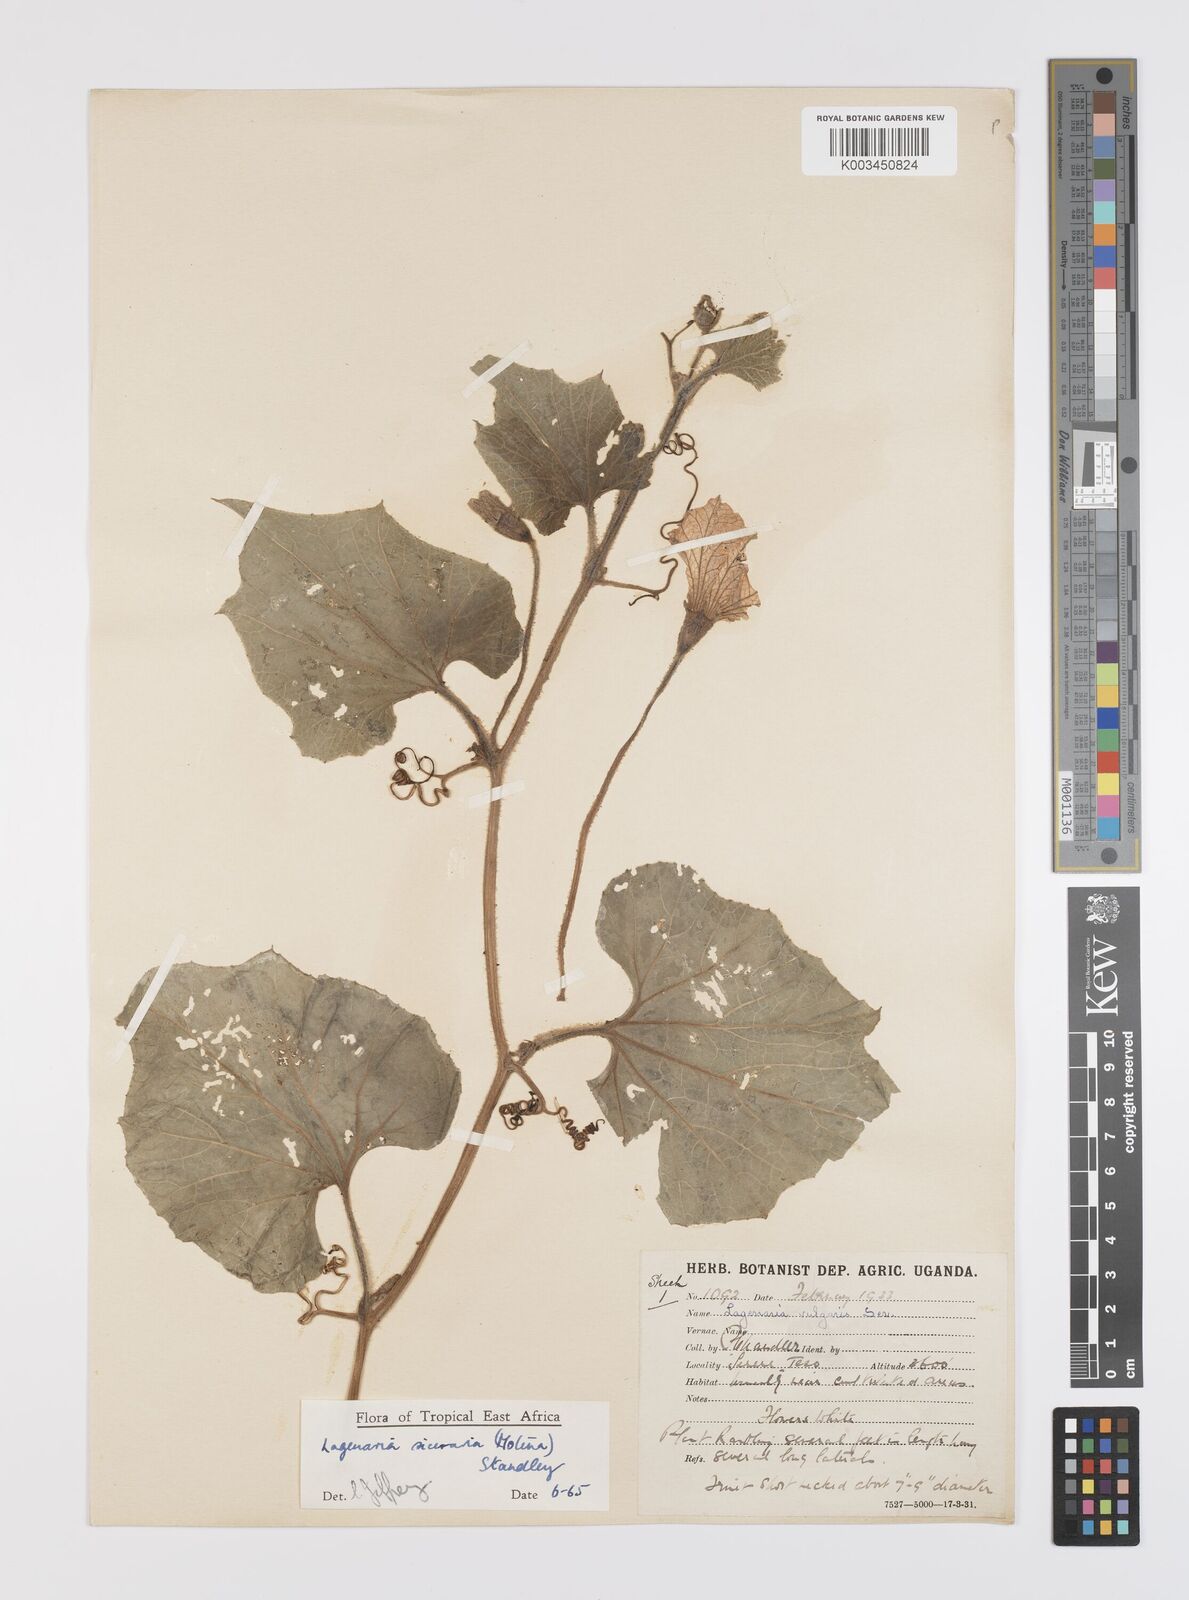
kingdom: Plantae
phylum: Tracheophyta
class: Magnoliopsida
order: Cucurbitales
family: Cucurbitaceae
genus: Lagenaria
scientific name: Lagenaria siceraria
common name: Bottle gourd
